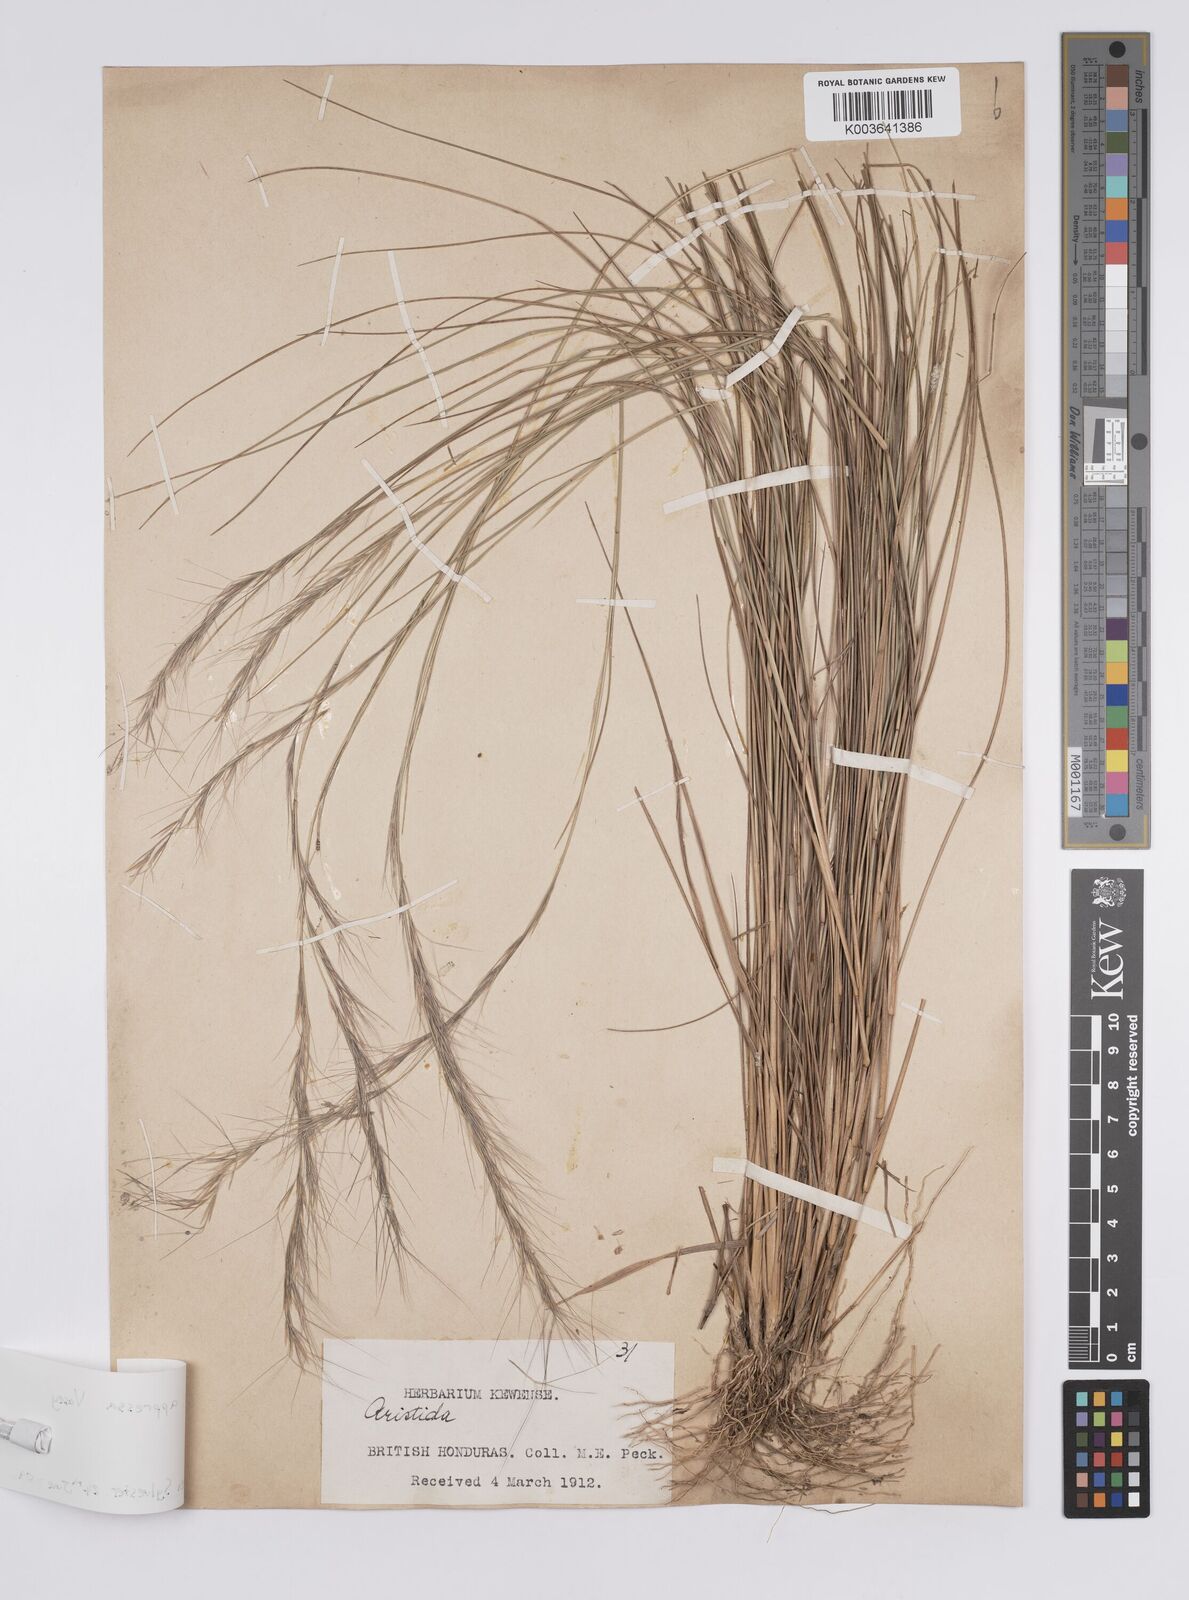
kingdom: Plantae
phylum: Tracheophyta
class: Liliopsida
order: Poales
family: Poaceae
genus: Aristida
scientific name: Aristida appressa
